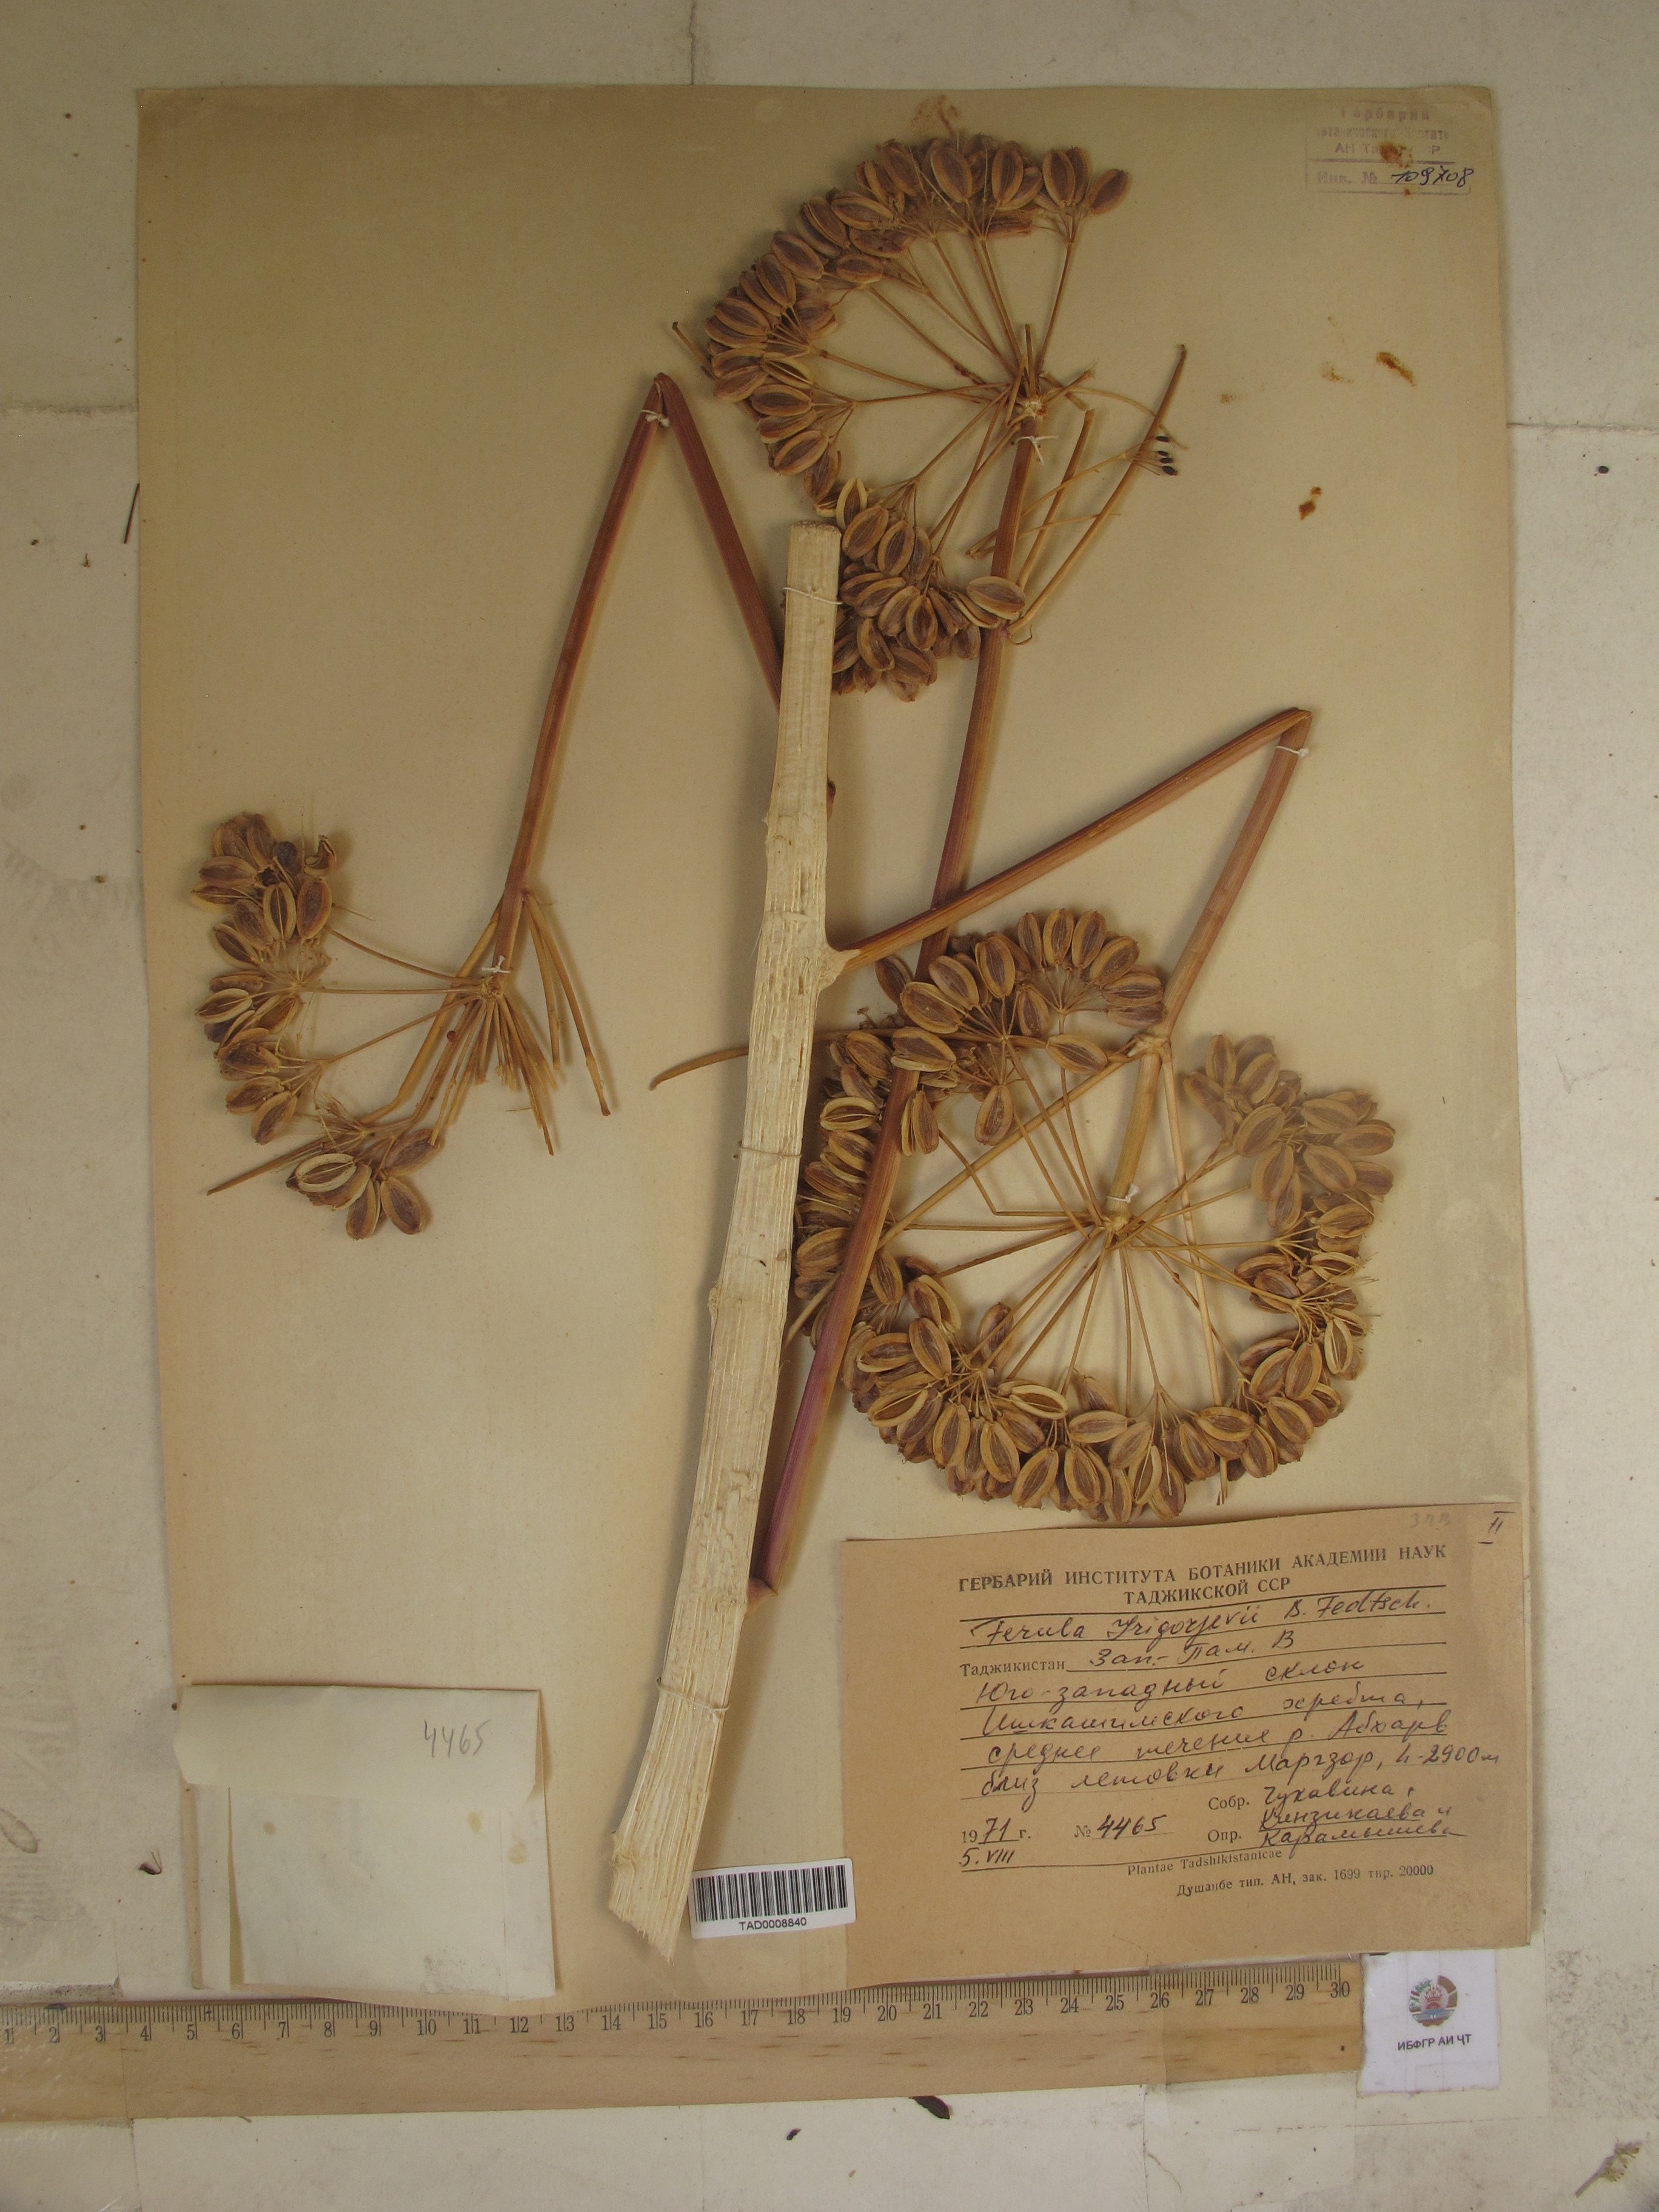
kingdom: Plantae
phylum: Tracheophyta
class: Magnoliopsida
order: Apiales
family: Apiaceae
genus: Ferula
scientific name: Ferula grigoriewii
